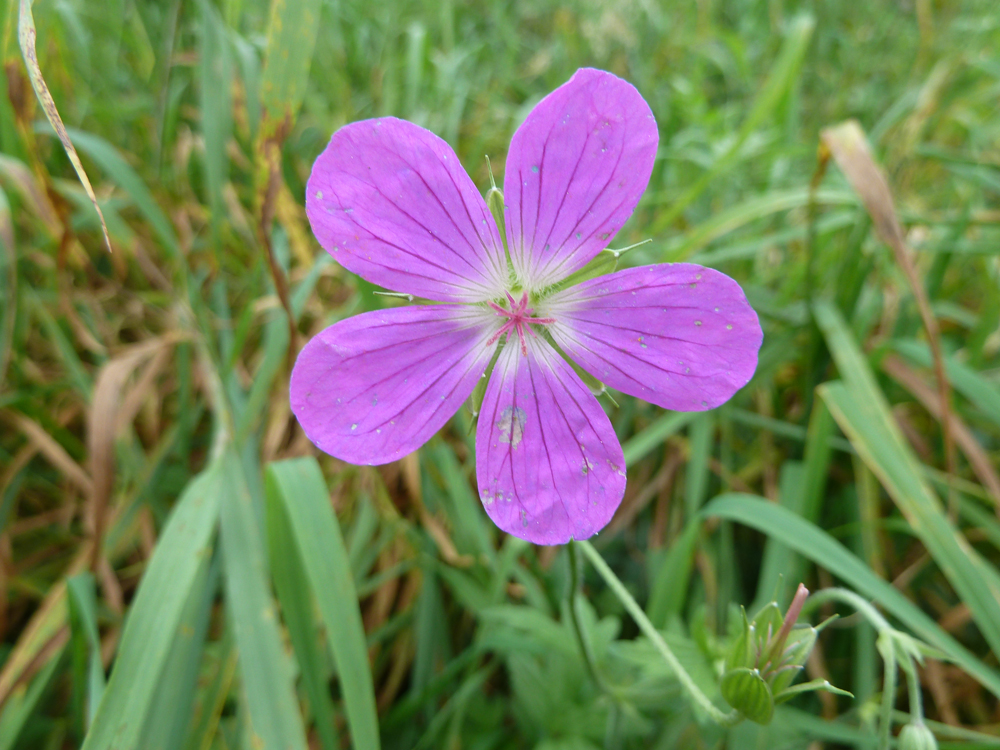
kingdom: Plantae
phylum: Tracheophyta
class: Magnoliopsida
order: Geraniales
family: Geraniaceae
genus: Geranium
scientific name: Geranium palustre
